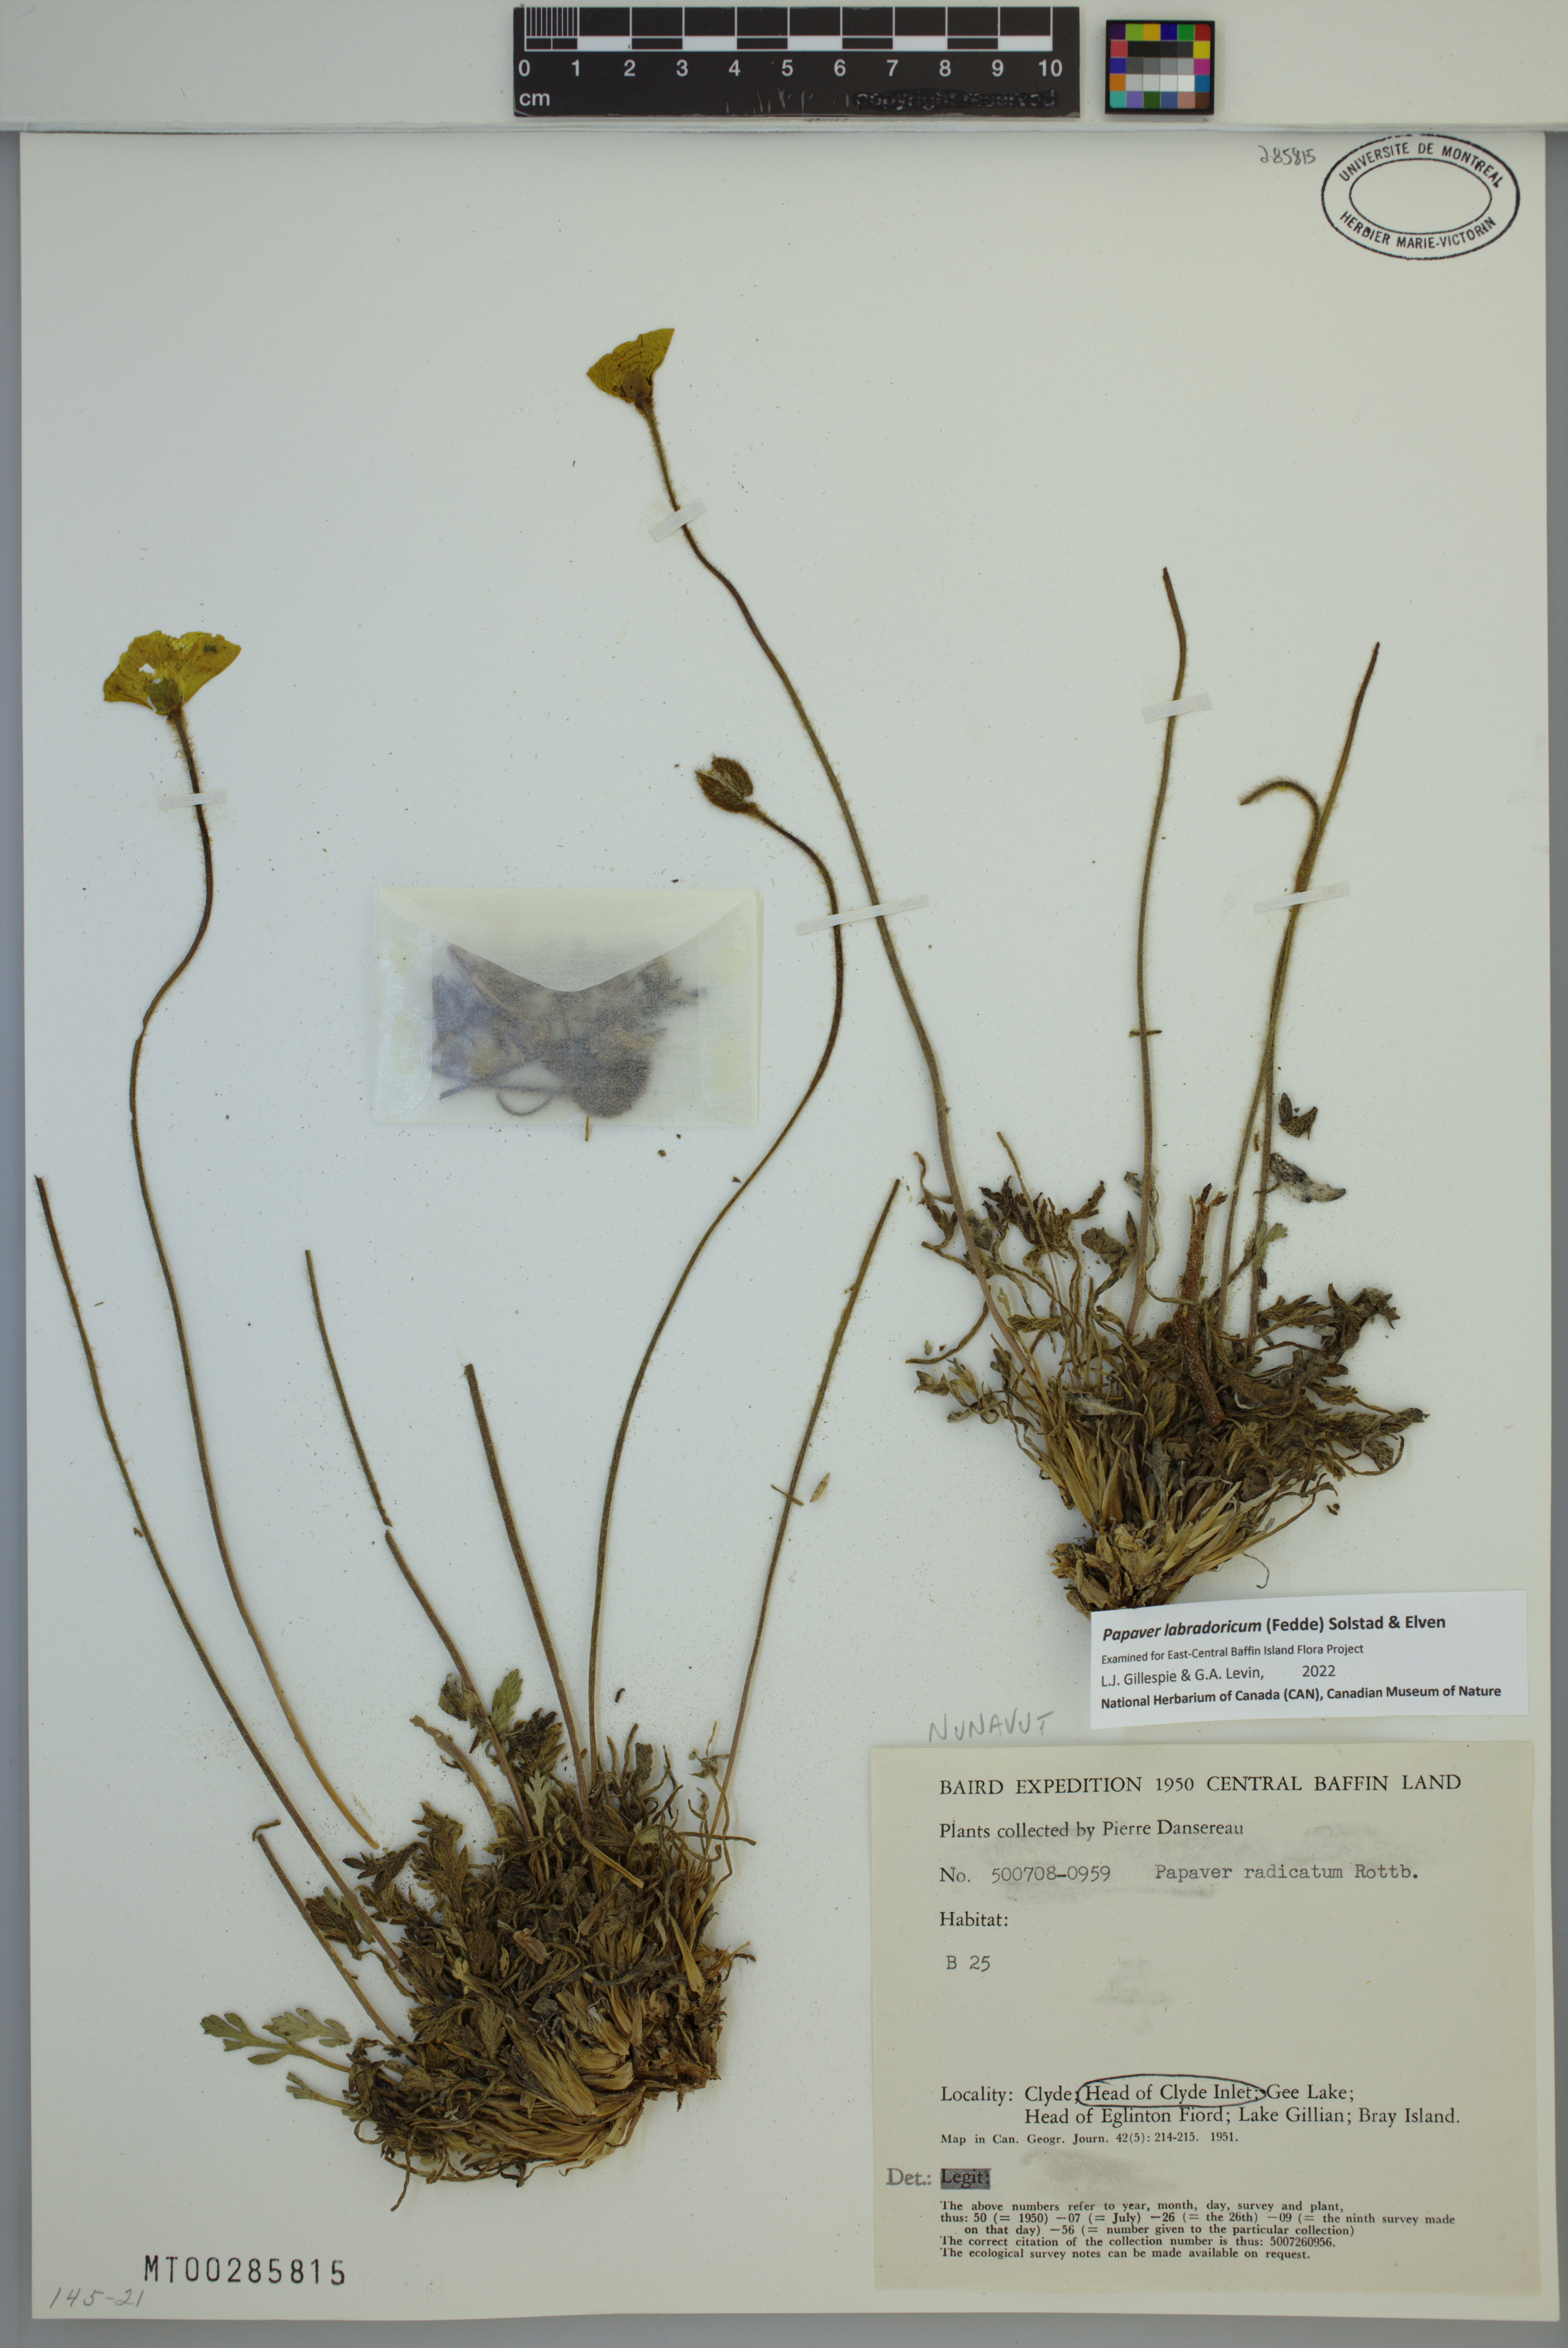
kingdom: Plantae
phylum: Tracheophyta
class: Magnoliopsida
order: Ranunculales
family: Papaveraceae
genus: Papaver
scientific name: Papaver radicatum
